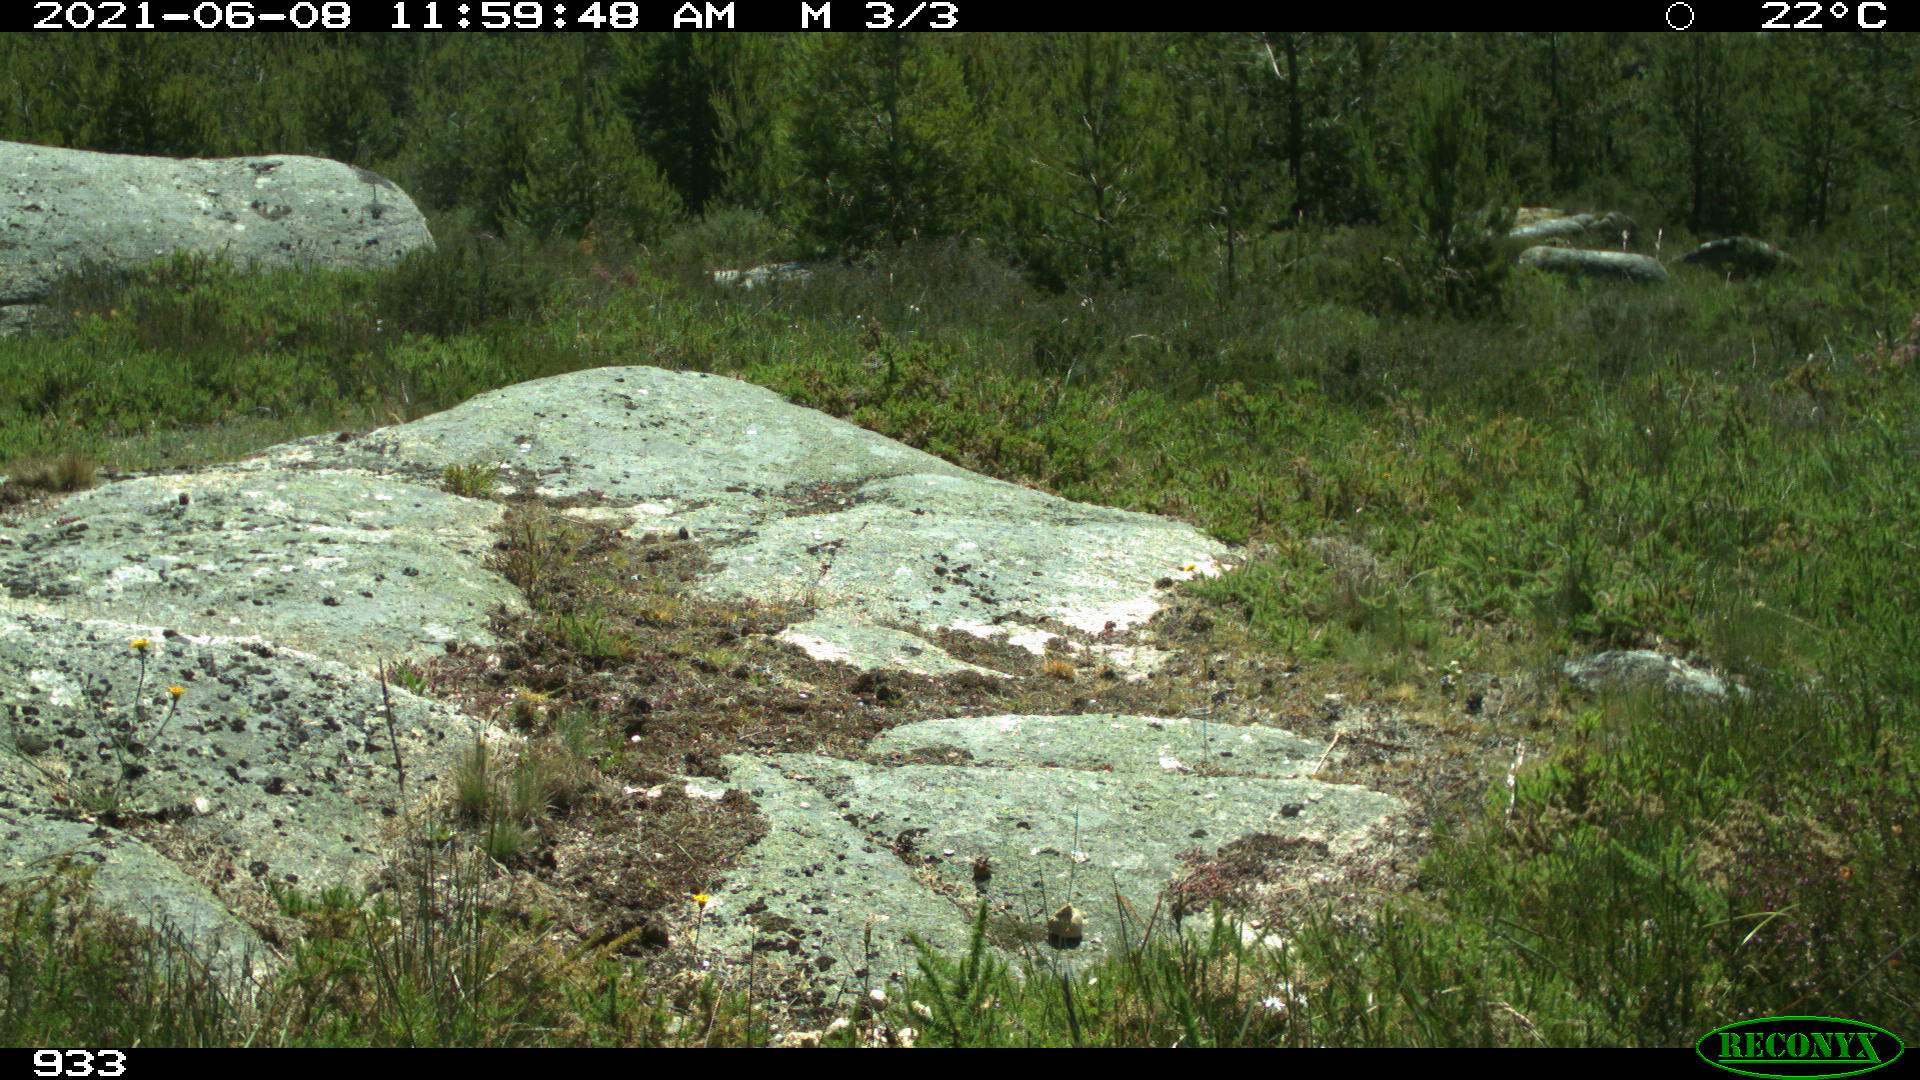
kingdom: Animalia
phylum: Chordata
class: Mammalia
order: Perissodactyla
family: Equidae
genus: Equus
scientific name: Equus caballus
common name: Horse
